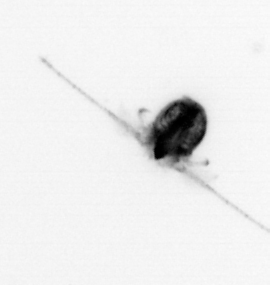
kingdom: Animalia
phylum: Arthropoda
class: Copepoda
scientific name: Copepoda
